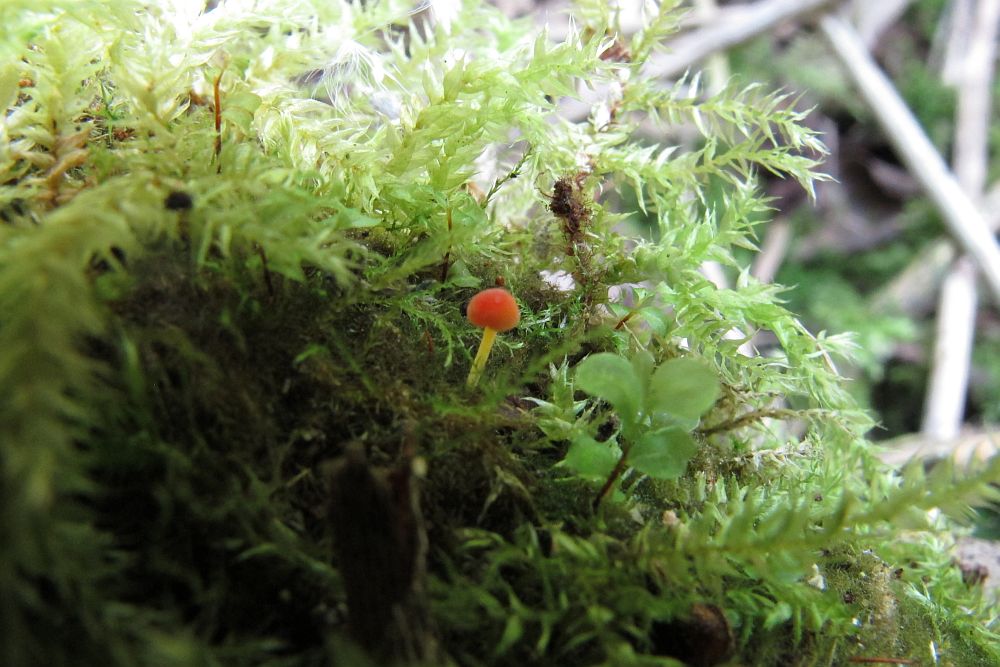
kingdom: Fungi
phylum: Basidiomycota
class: Agaricomycetes
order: Agaricales
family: Mycenaceae
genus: Mycena
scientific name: Mycena acicula
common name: orange huesvamp
